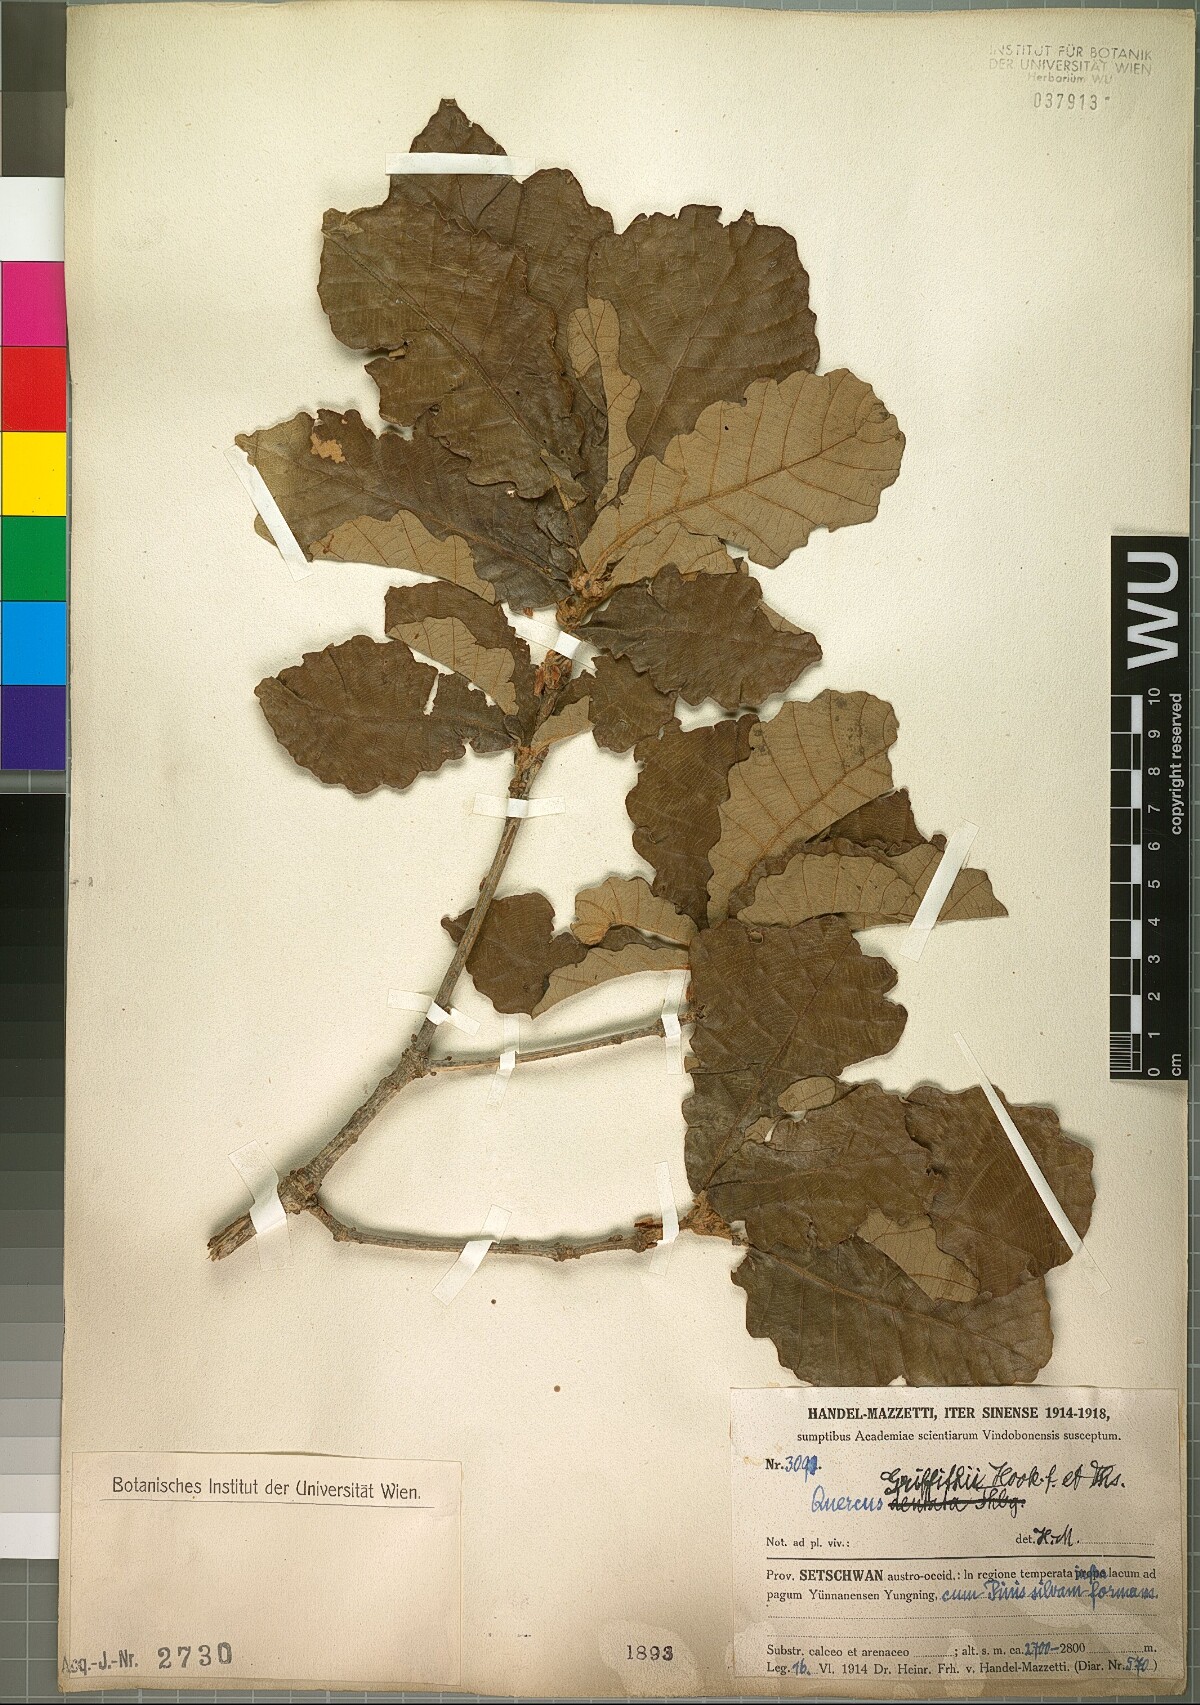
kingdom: Plantae
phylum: Tracheophyta
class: Magnoliopsida
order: Fagales
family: Fagaceae
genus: Quercus
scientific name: Quercus griffithii
